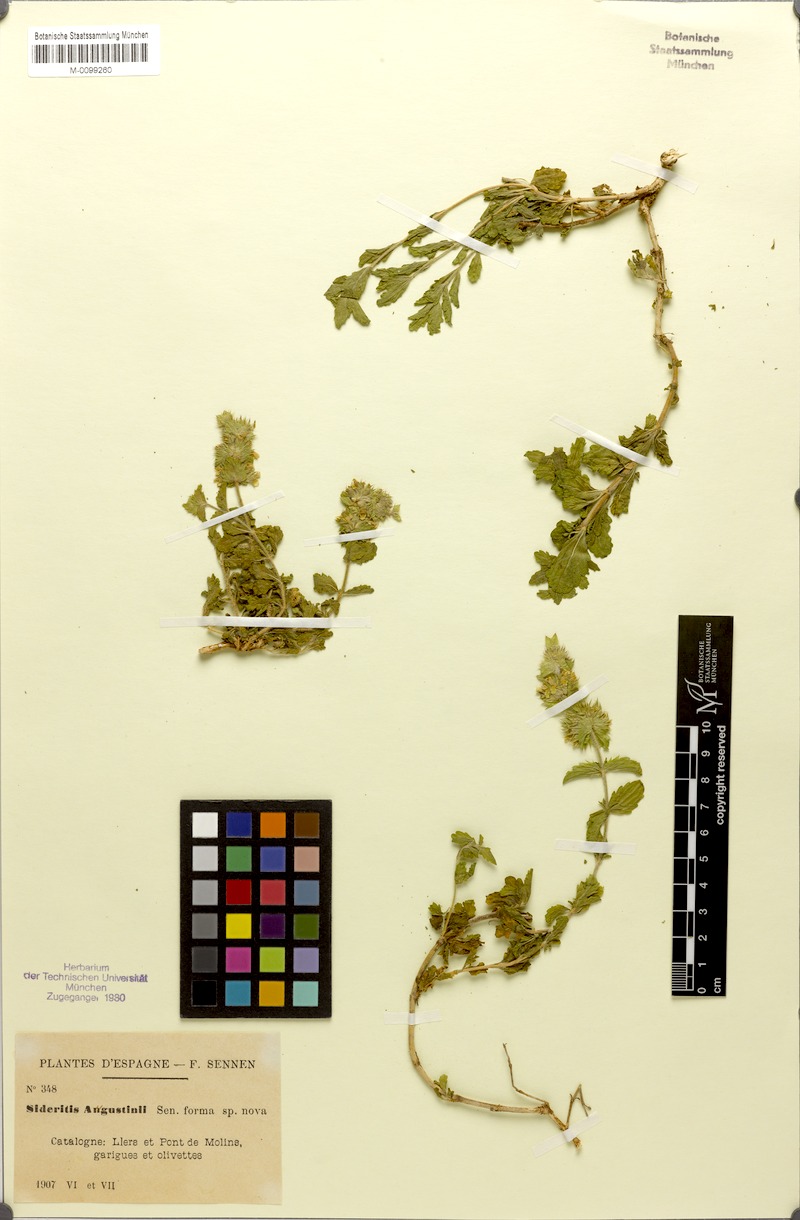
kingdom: Plantae
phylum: Tracheophyta
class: Magnoliopsida
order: Lamiales
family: Lamiaceae
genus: Sideritis
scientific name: Sideritis endressii
